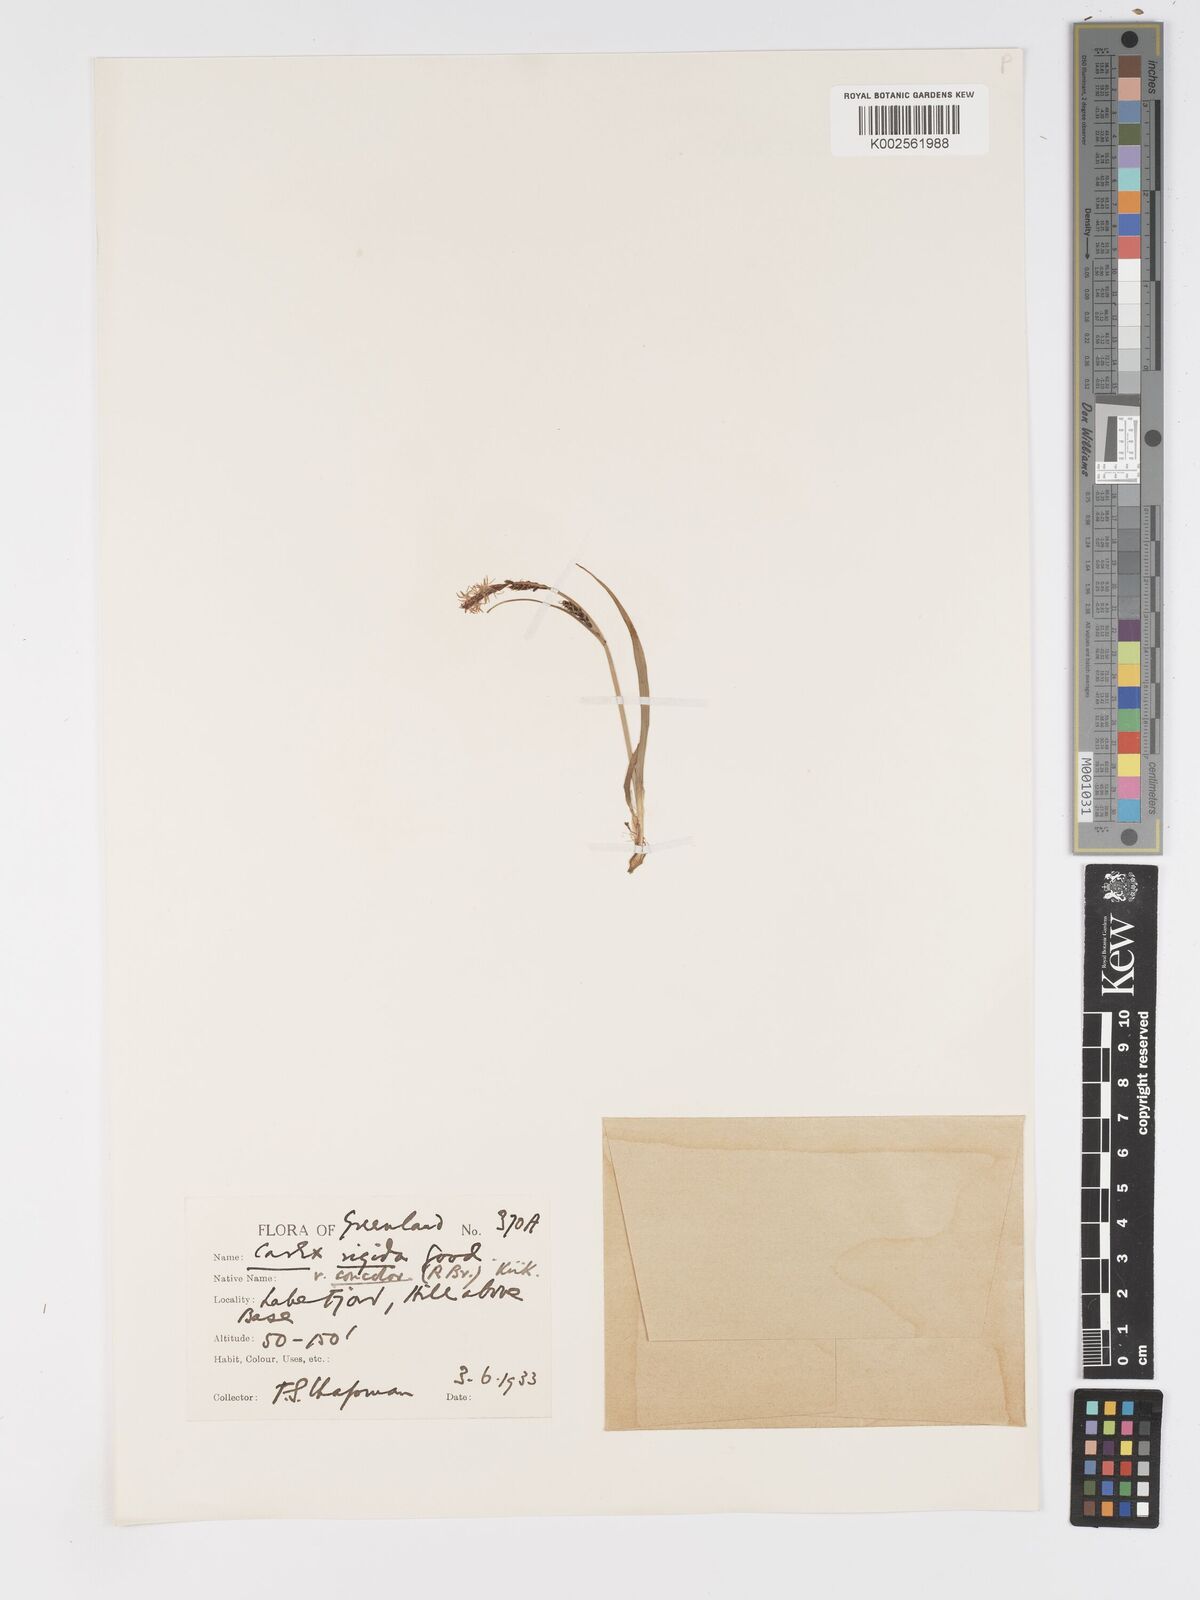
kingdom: Plantae
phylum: Tracheophyta
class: Liliopsida
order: Poales
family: Cyperaceae
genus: Carex
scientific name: Carex bigelowii
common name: Stiff sedge
